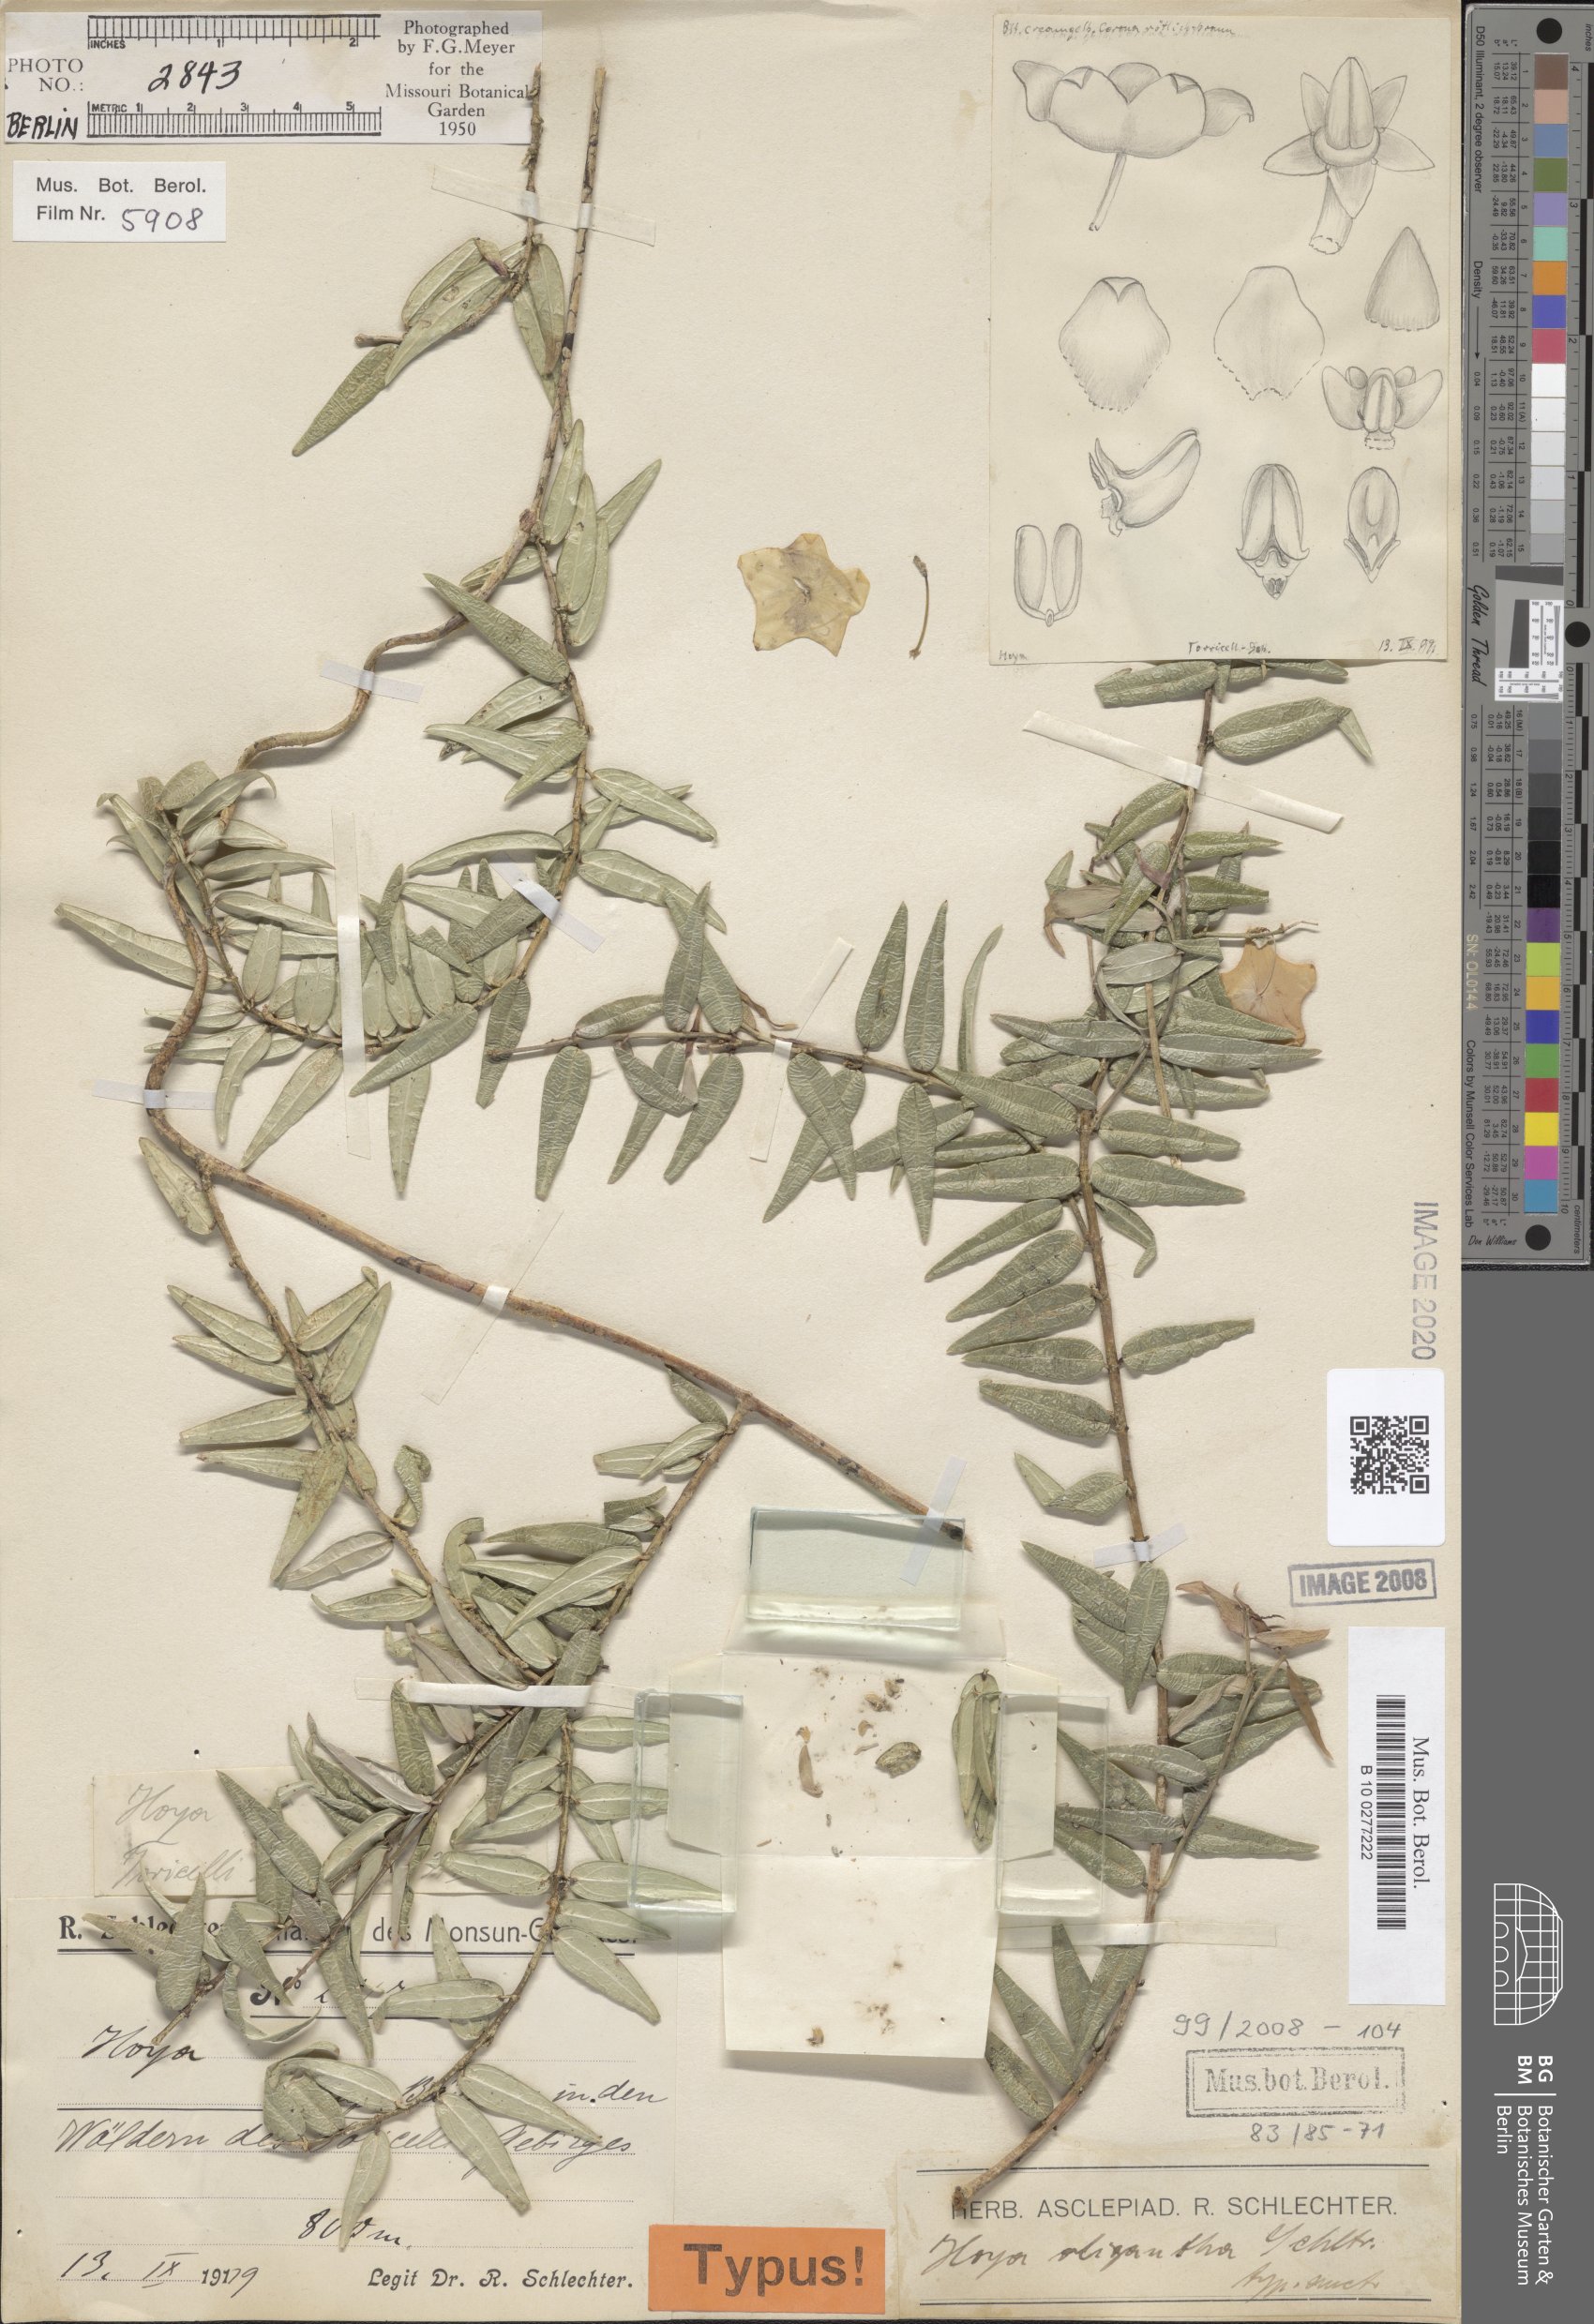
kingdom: Plantae
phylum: Tracheophyta
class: Magnoliopsida
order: Gentianales
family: Apocynaceae
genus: Hoya
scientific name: Hoya oligantha
